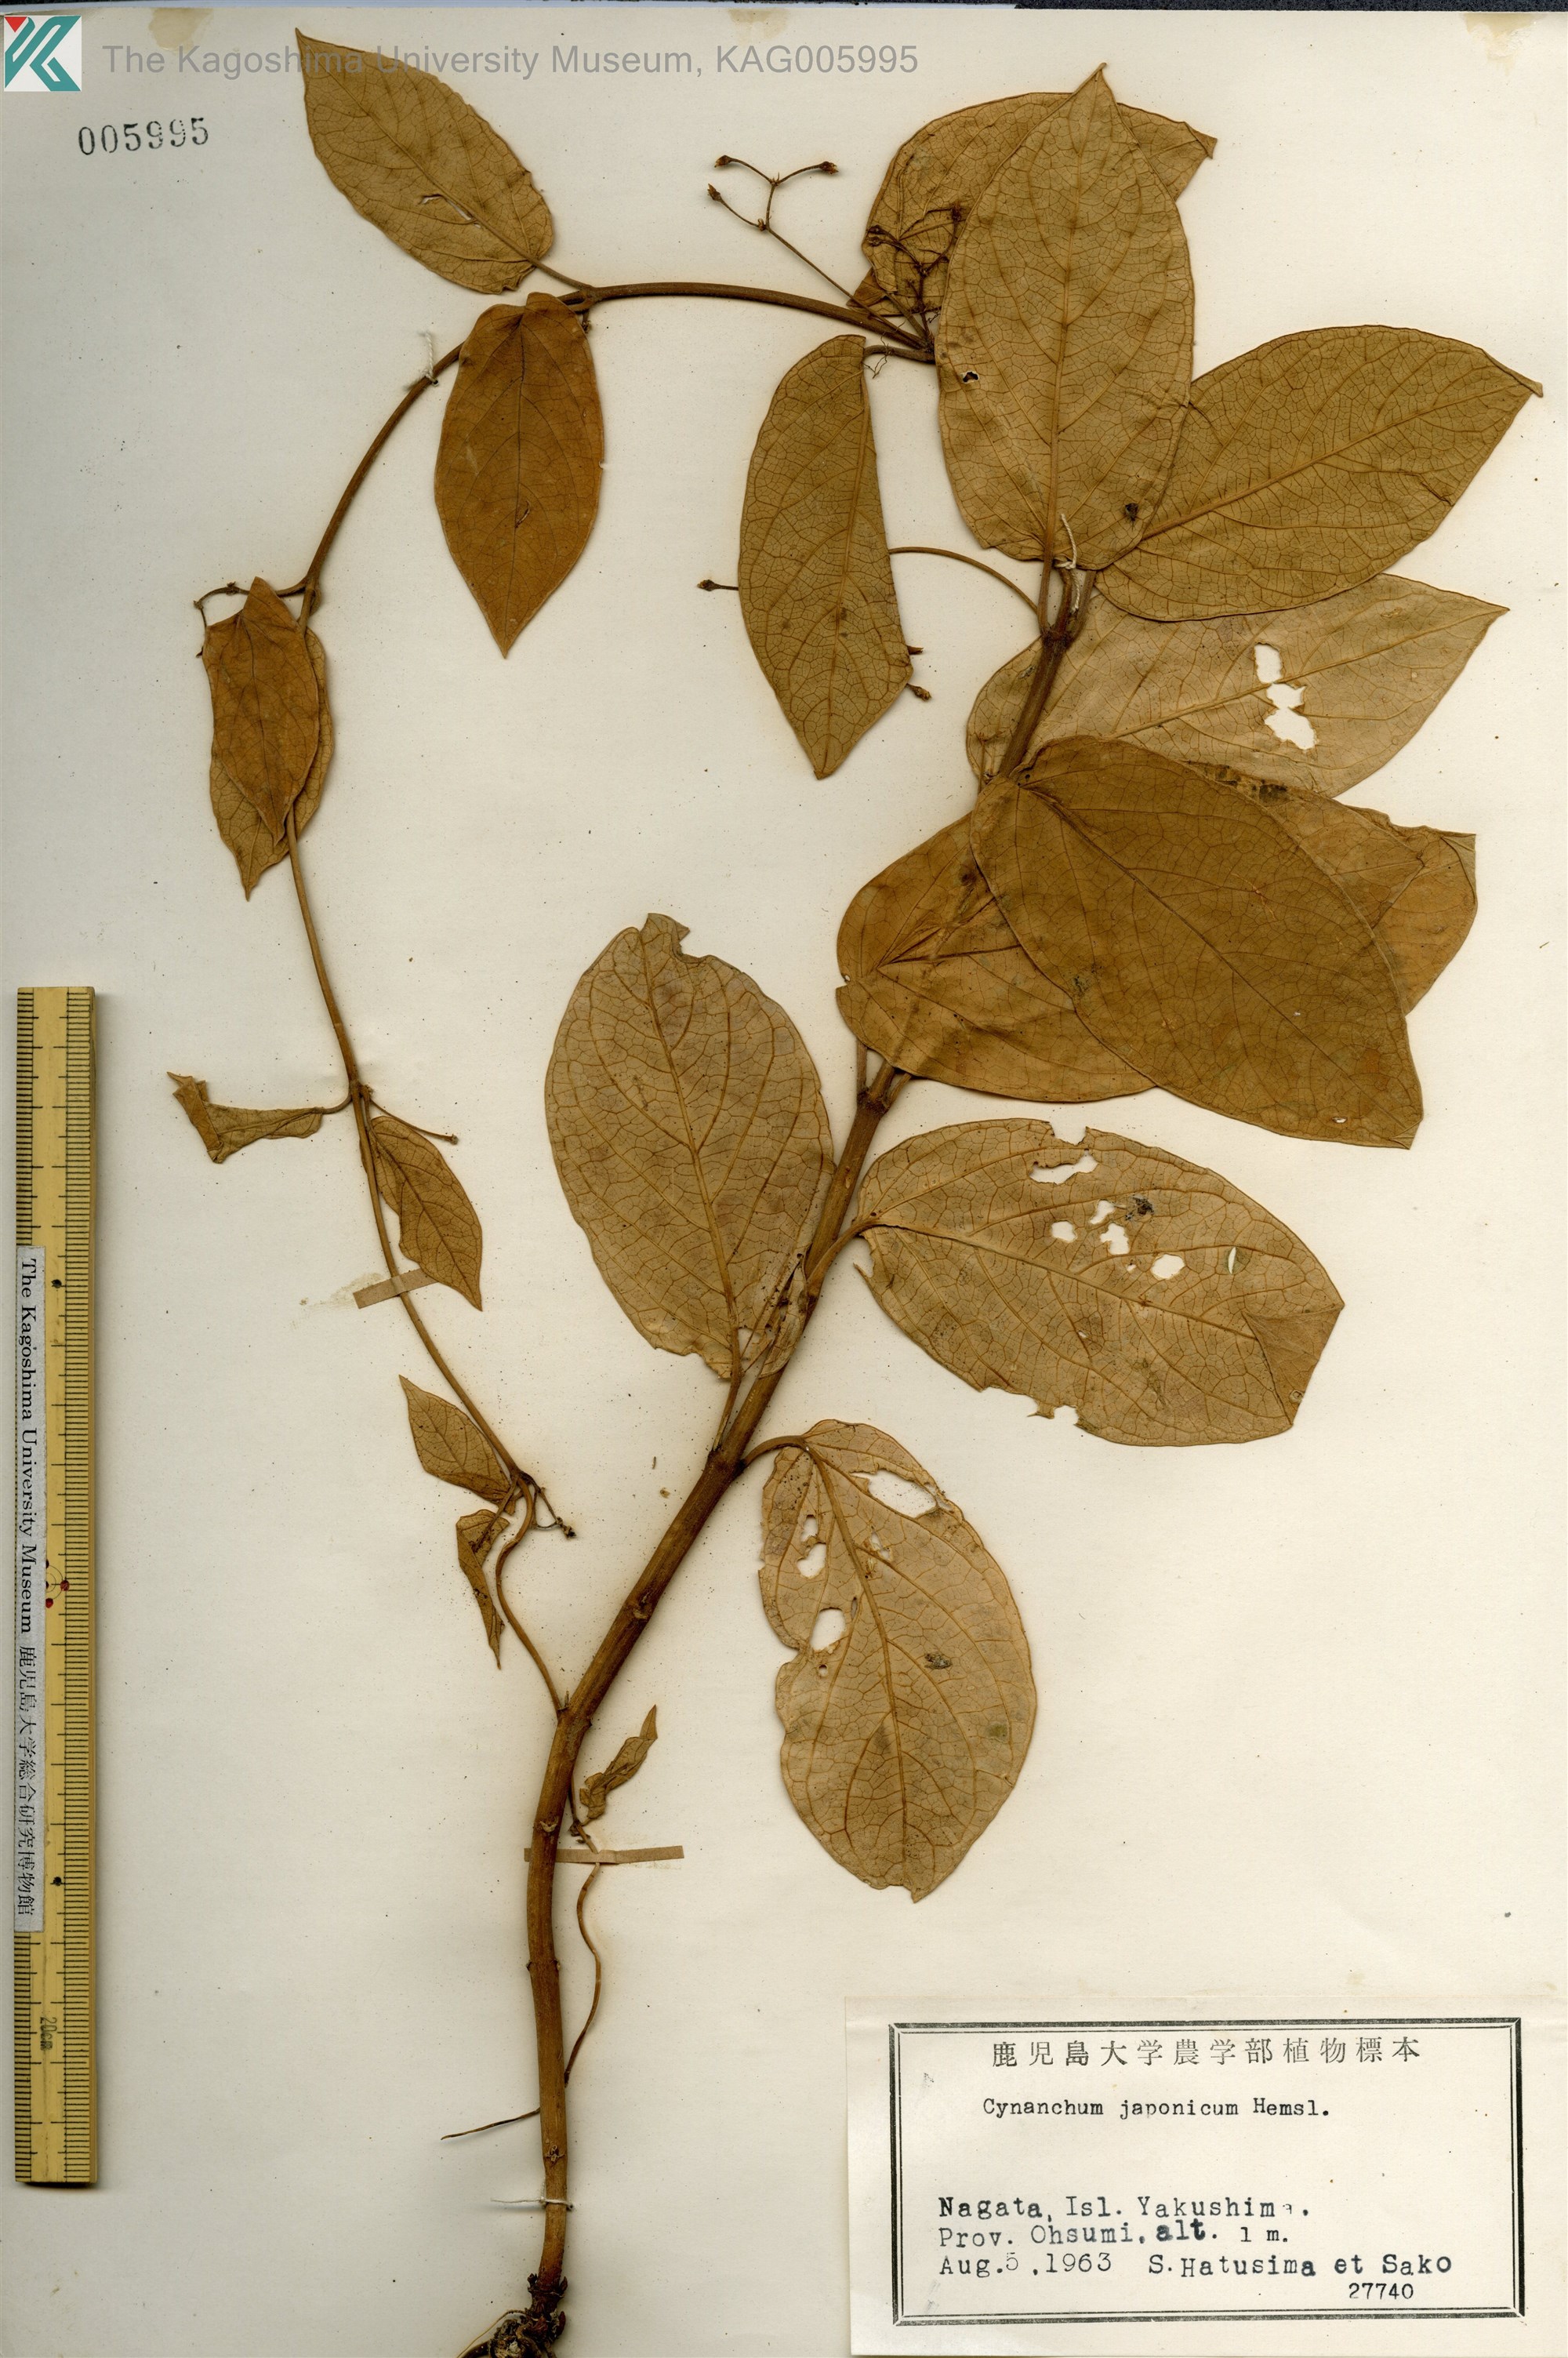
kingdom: Plantae
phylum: Tracheophyta
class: Magnoliopsida
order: Gentianales
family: Apocynaceae
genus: Vincetoxicum
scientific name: Vincetoxicum japonicum
